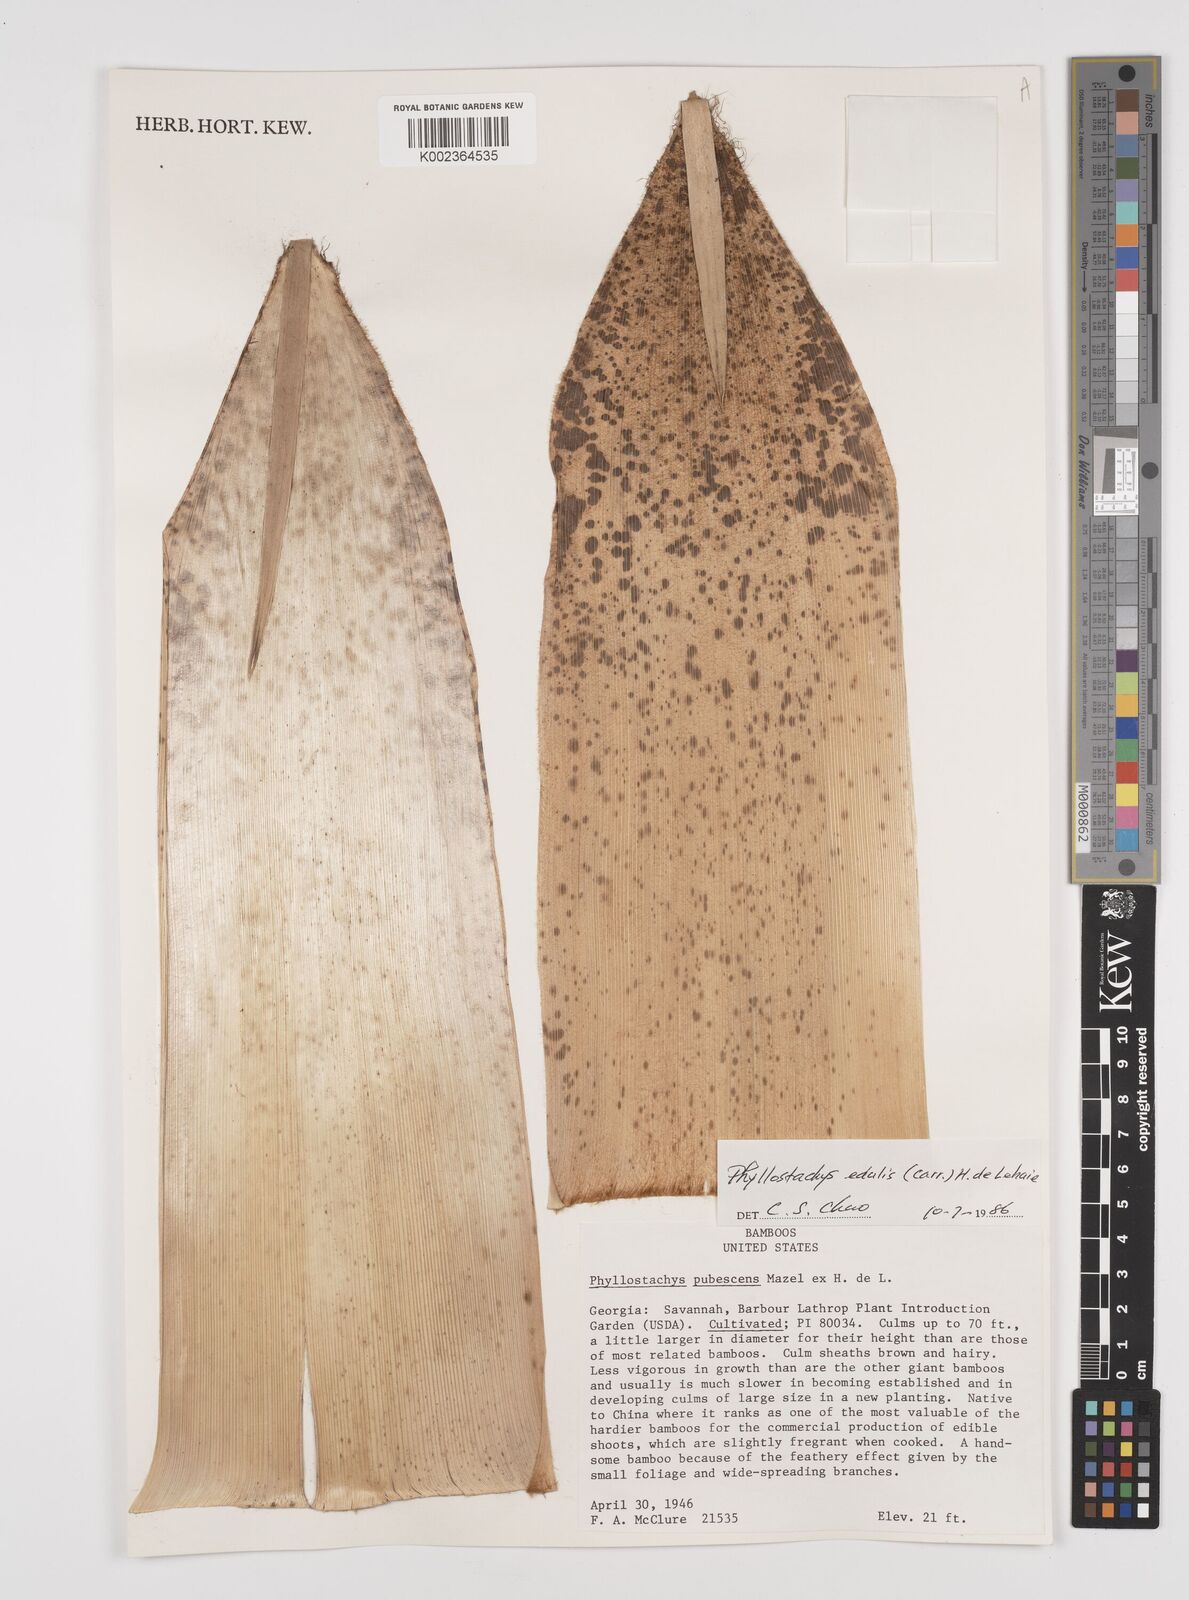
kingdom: Plantae
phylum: Tracheophyta
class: Liliopsida
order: Poales
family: Poaceae
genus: Phyllostachys
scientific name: Phyllostachys edulis
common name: Tortoise shell bamboo
